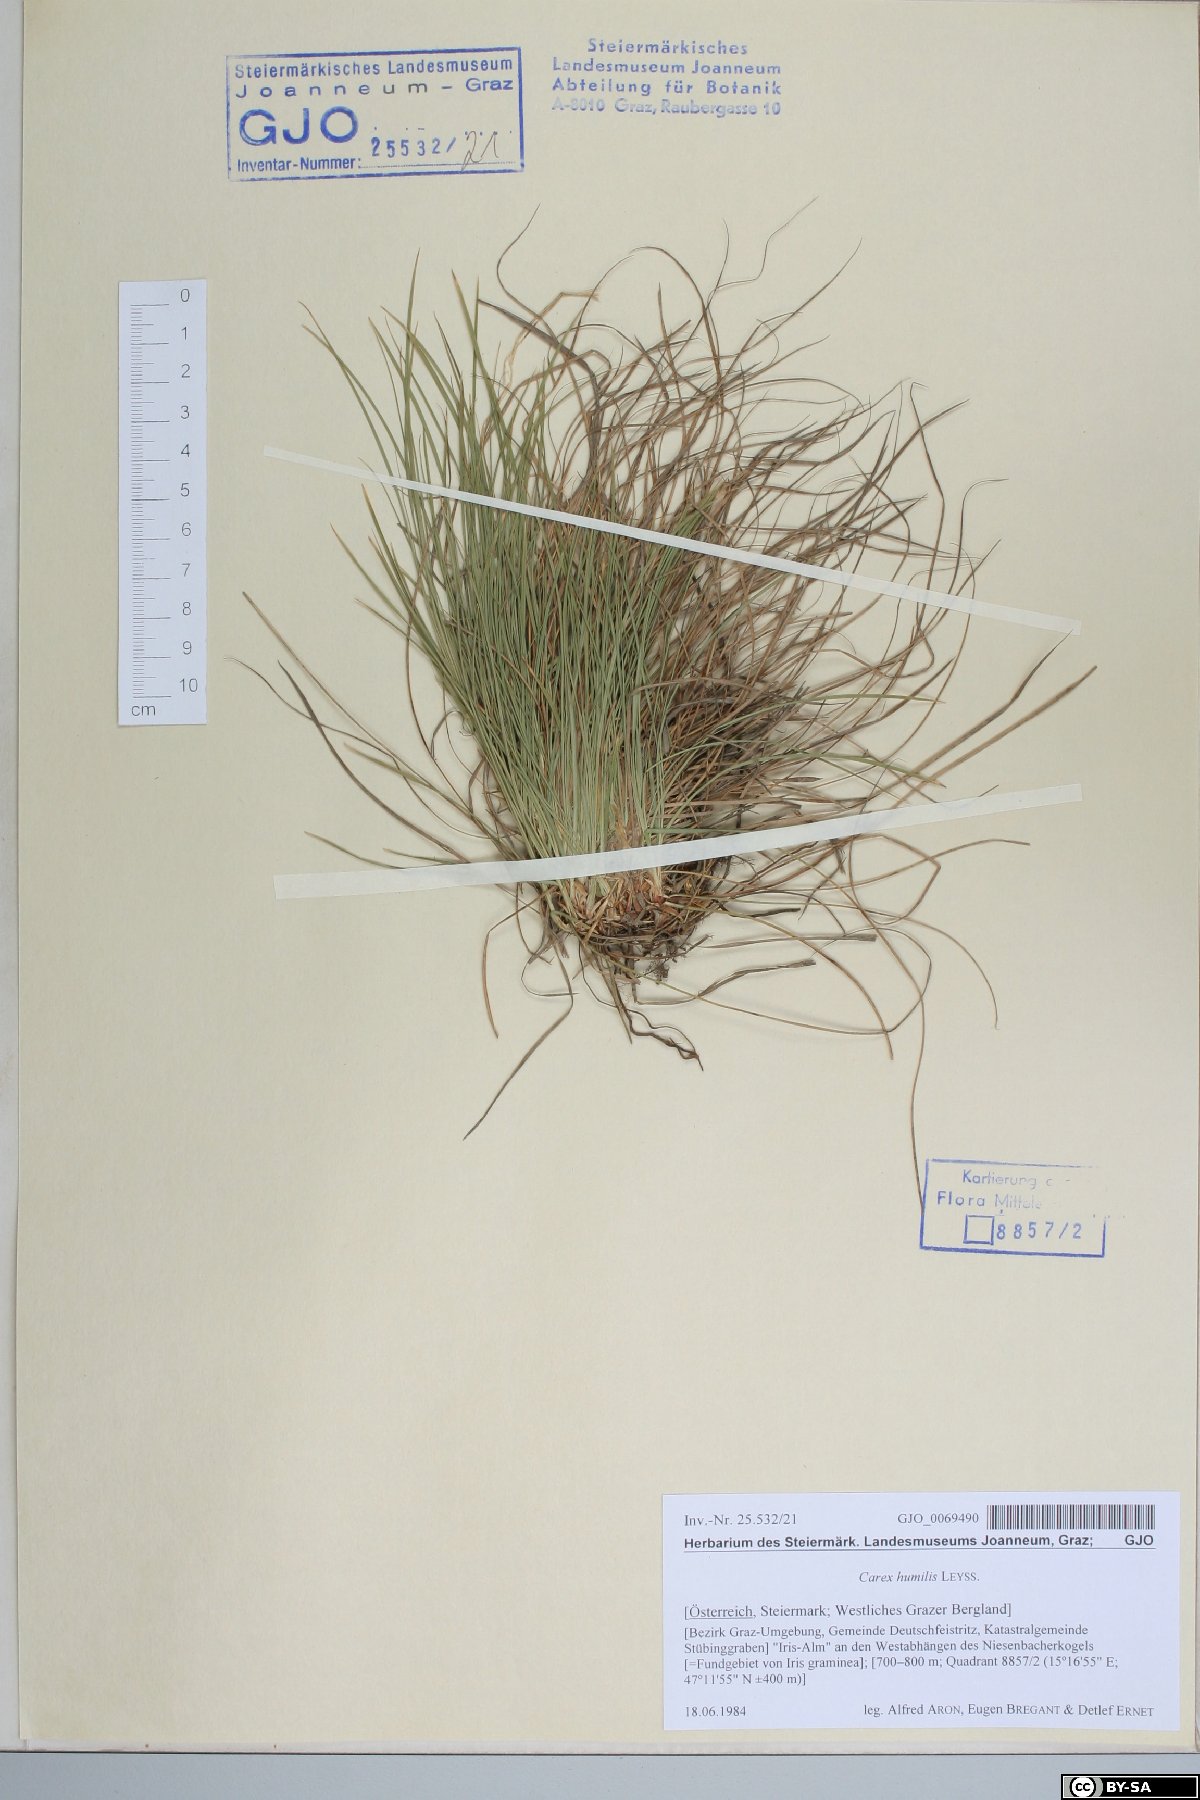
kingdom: Plantae
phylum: Tracheophyta
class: Liliopsida
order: Poales
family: Cyperaceae
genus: Carex
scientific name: Carex humilis
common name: Dwarf sedge
